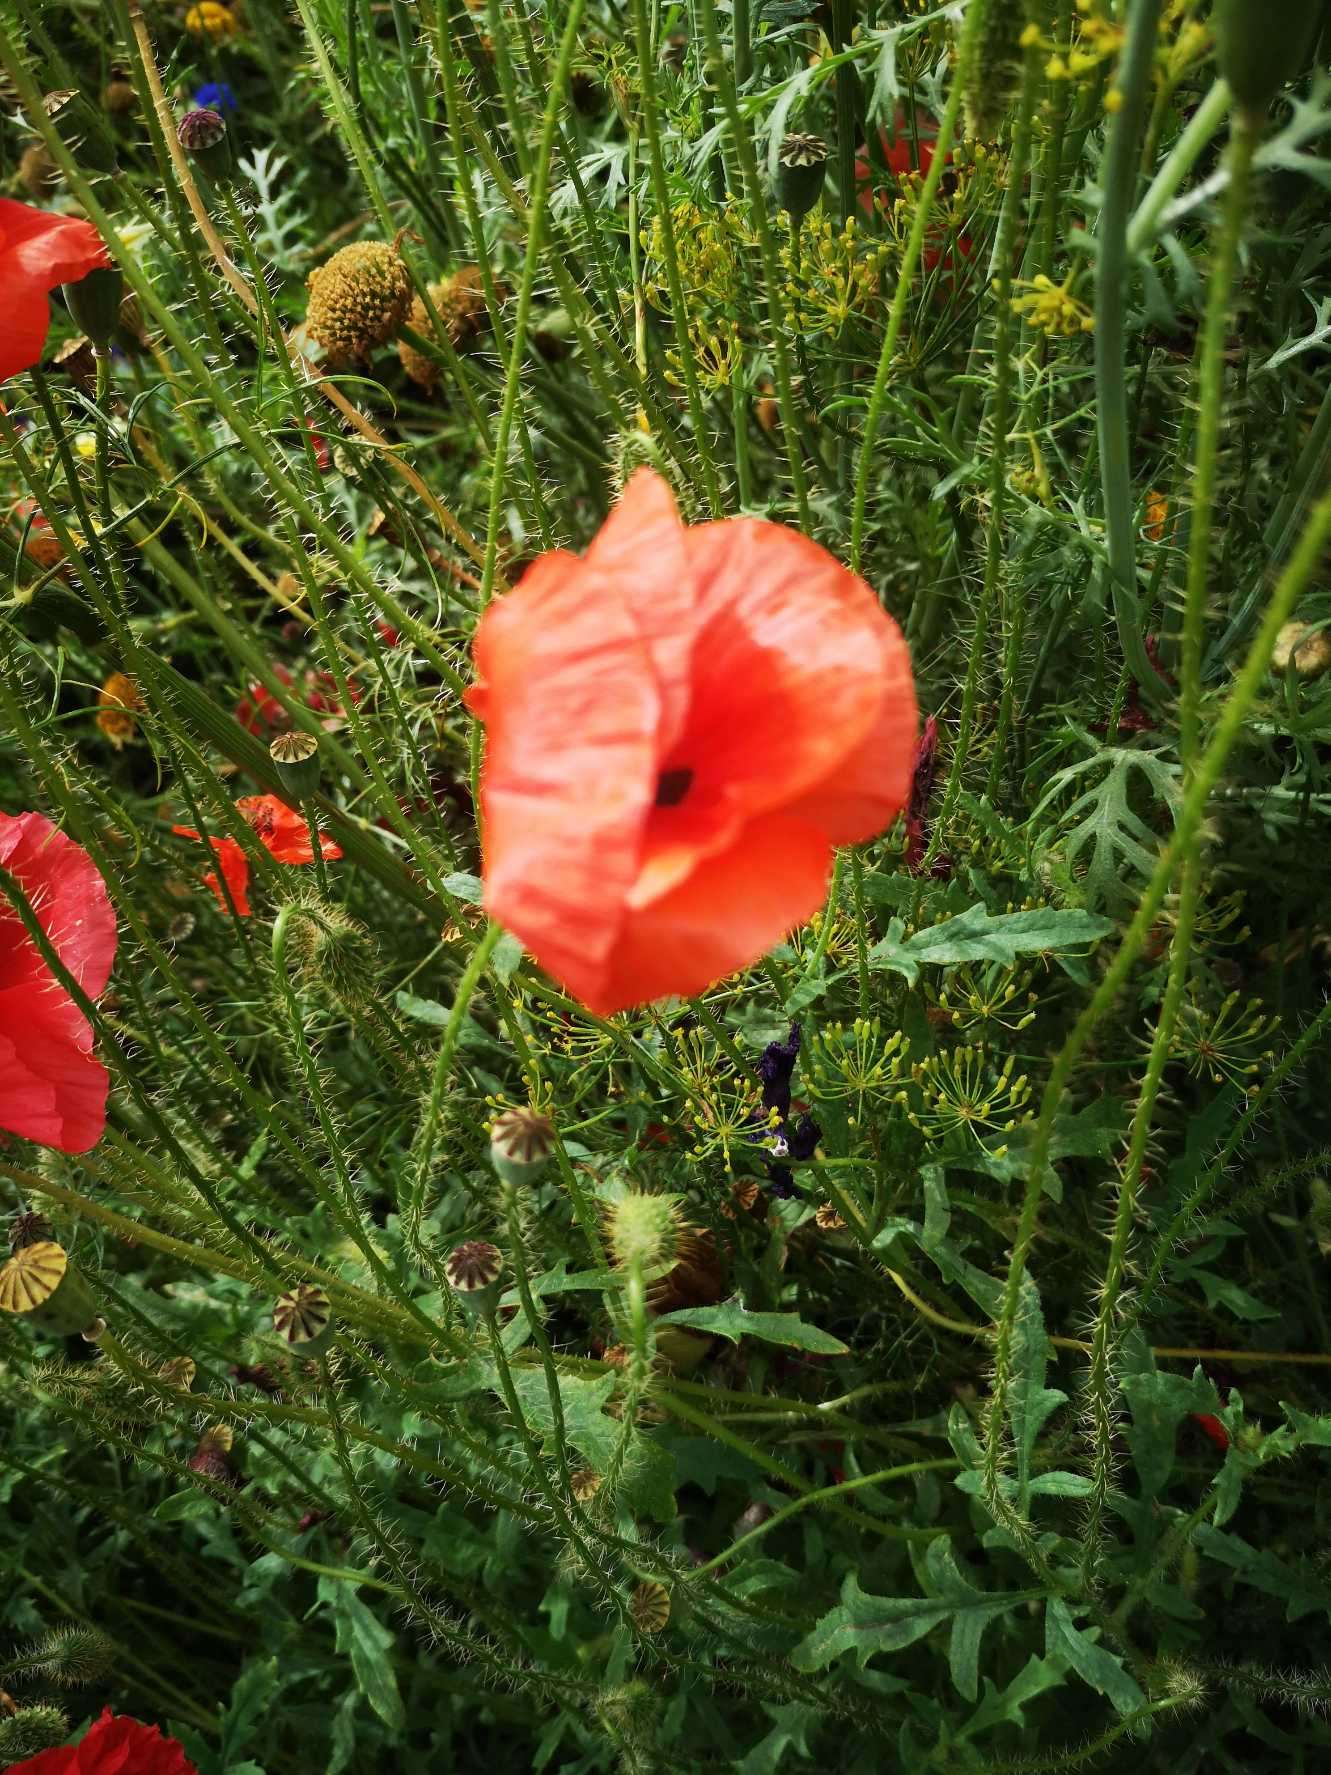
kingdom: Plantae
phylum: Tracheophyta
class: Magnoliopsida
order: Ranunculales
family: Papaveraceae
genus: Papaver
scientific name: Papaver rhoeas
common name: Korn-valmue
